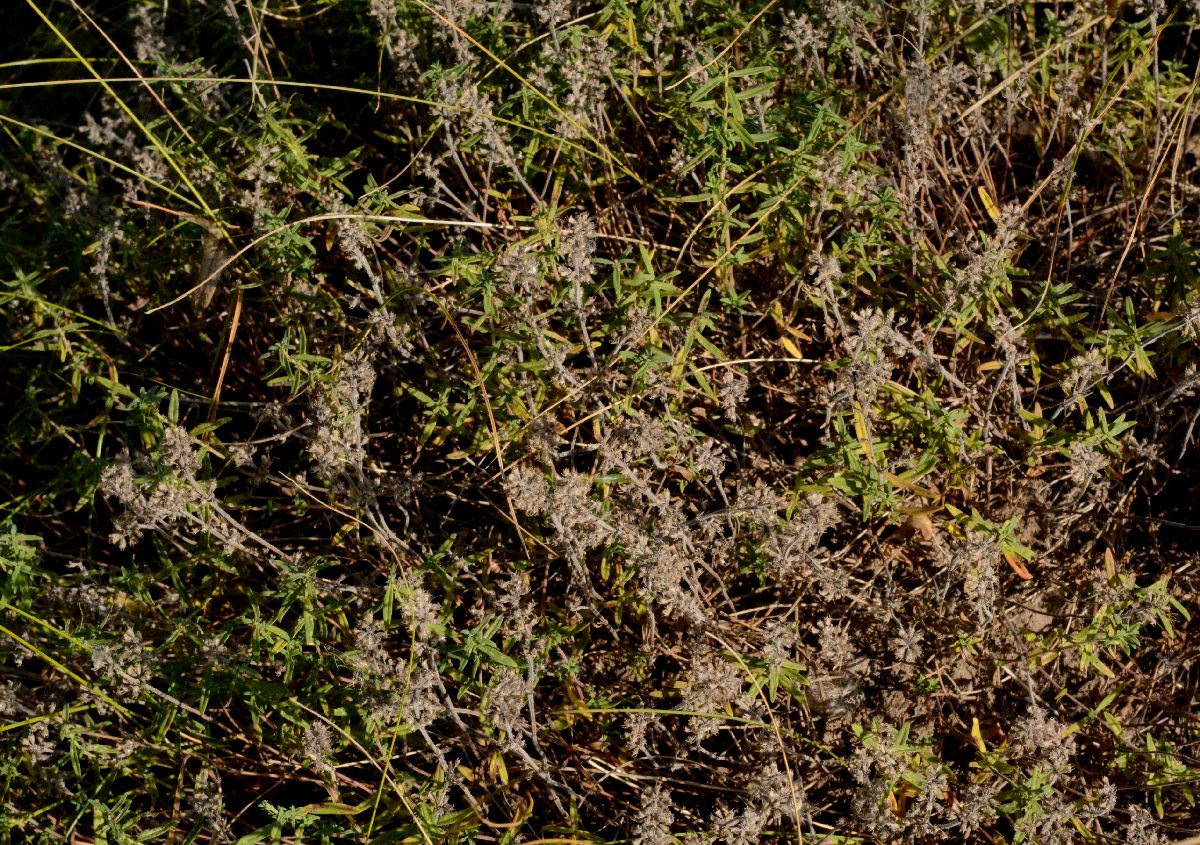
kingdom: Plantae
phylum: Tracheophyta
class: Magnoliopsida
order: Lamiales
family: Lamiaceae
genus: Thymus
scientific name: Thymus pannonicus
